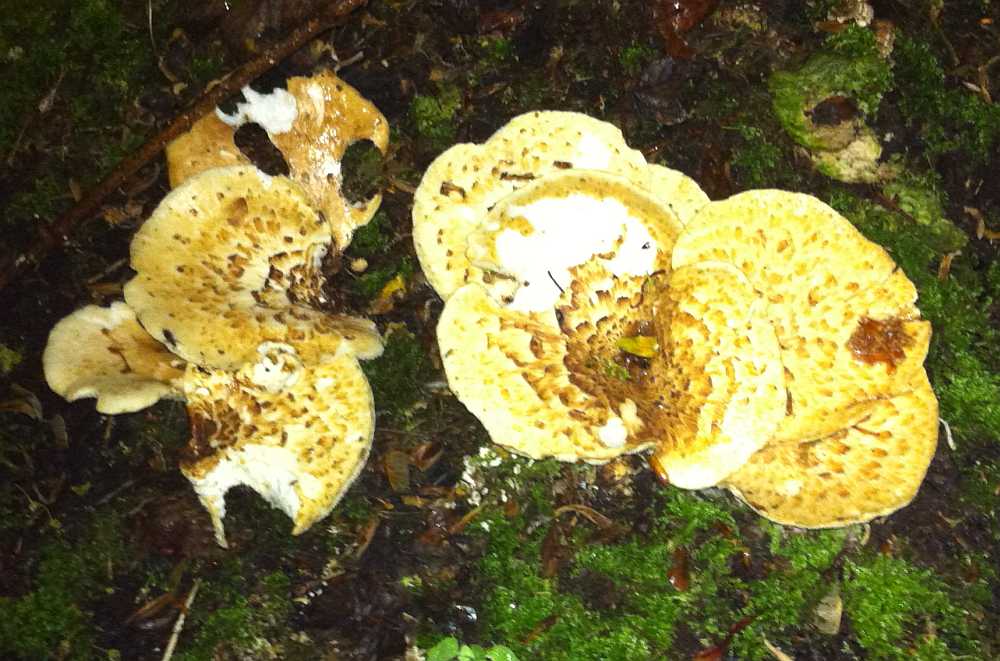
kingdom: Fungi
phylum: Basidiomycota
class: Agaricomycetes
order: Polyporales
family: Polyporaceae
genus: Cerioporus
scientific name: Cerioporus squamosus
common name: skællet stilkporesvamp
